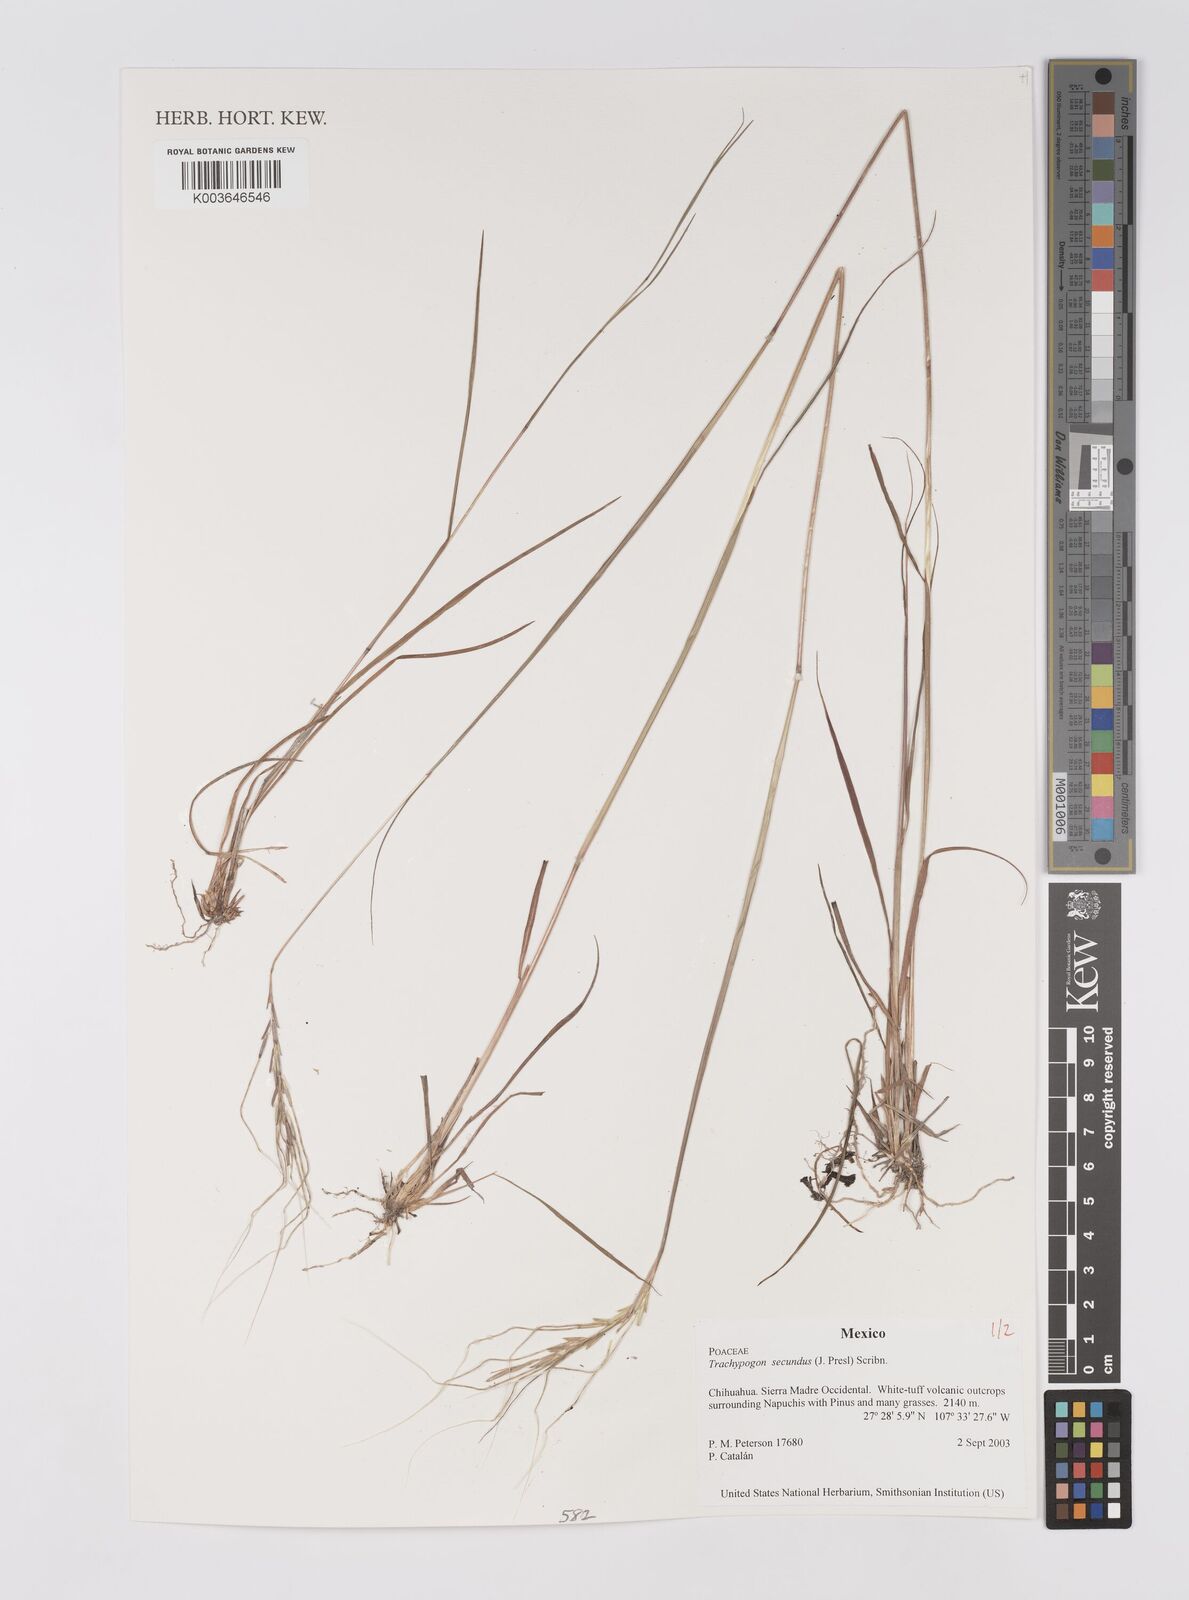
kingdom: Plantae
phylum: Tracheophyta
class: Liliopsida
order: Poales
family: Poaceae
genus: Trachypogon
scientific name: Trachypogon spicatus
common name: Crinkle-awn
